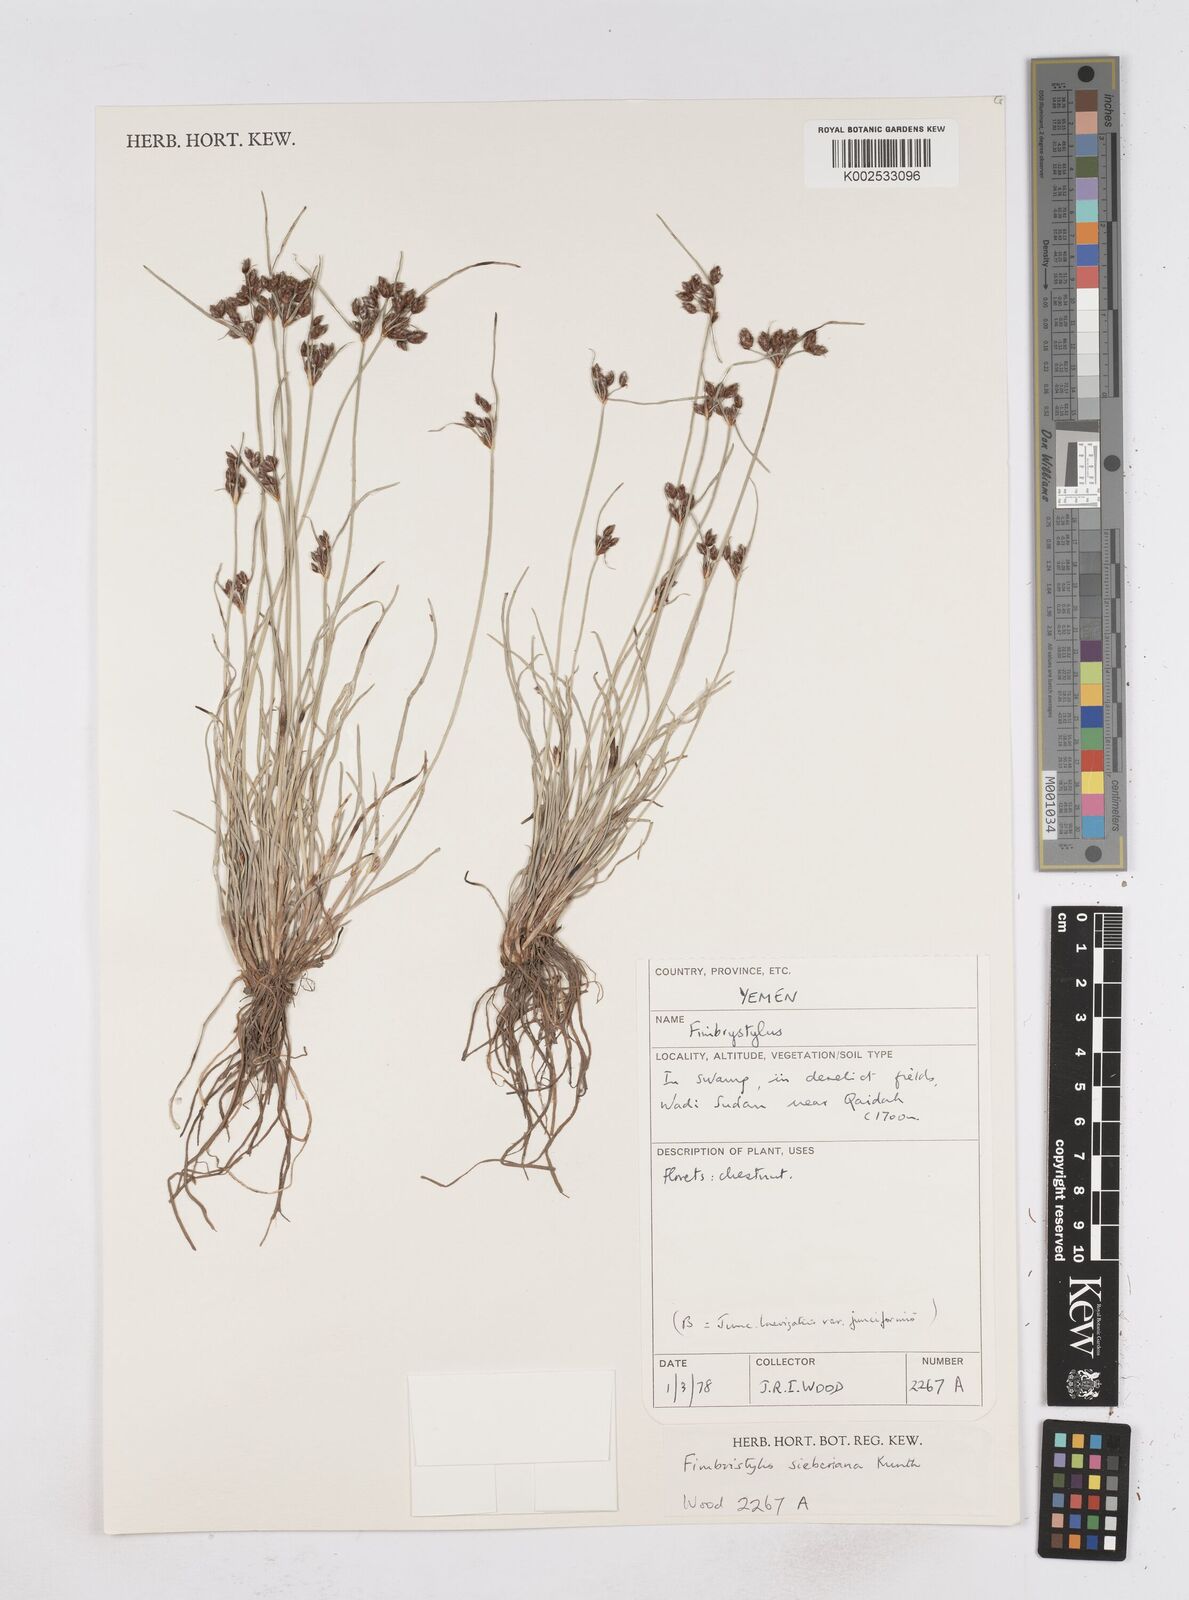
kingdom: Plantae
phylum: Tracheophyta
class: Liliopsida
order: Poales
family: Cyperaceae
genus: Fimbristylis
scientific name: Fimbristylis ferruginea
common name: West indian fimbry
